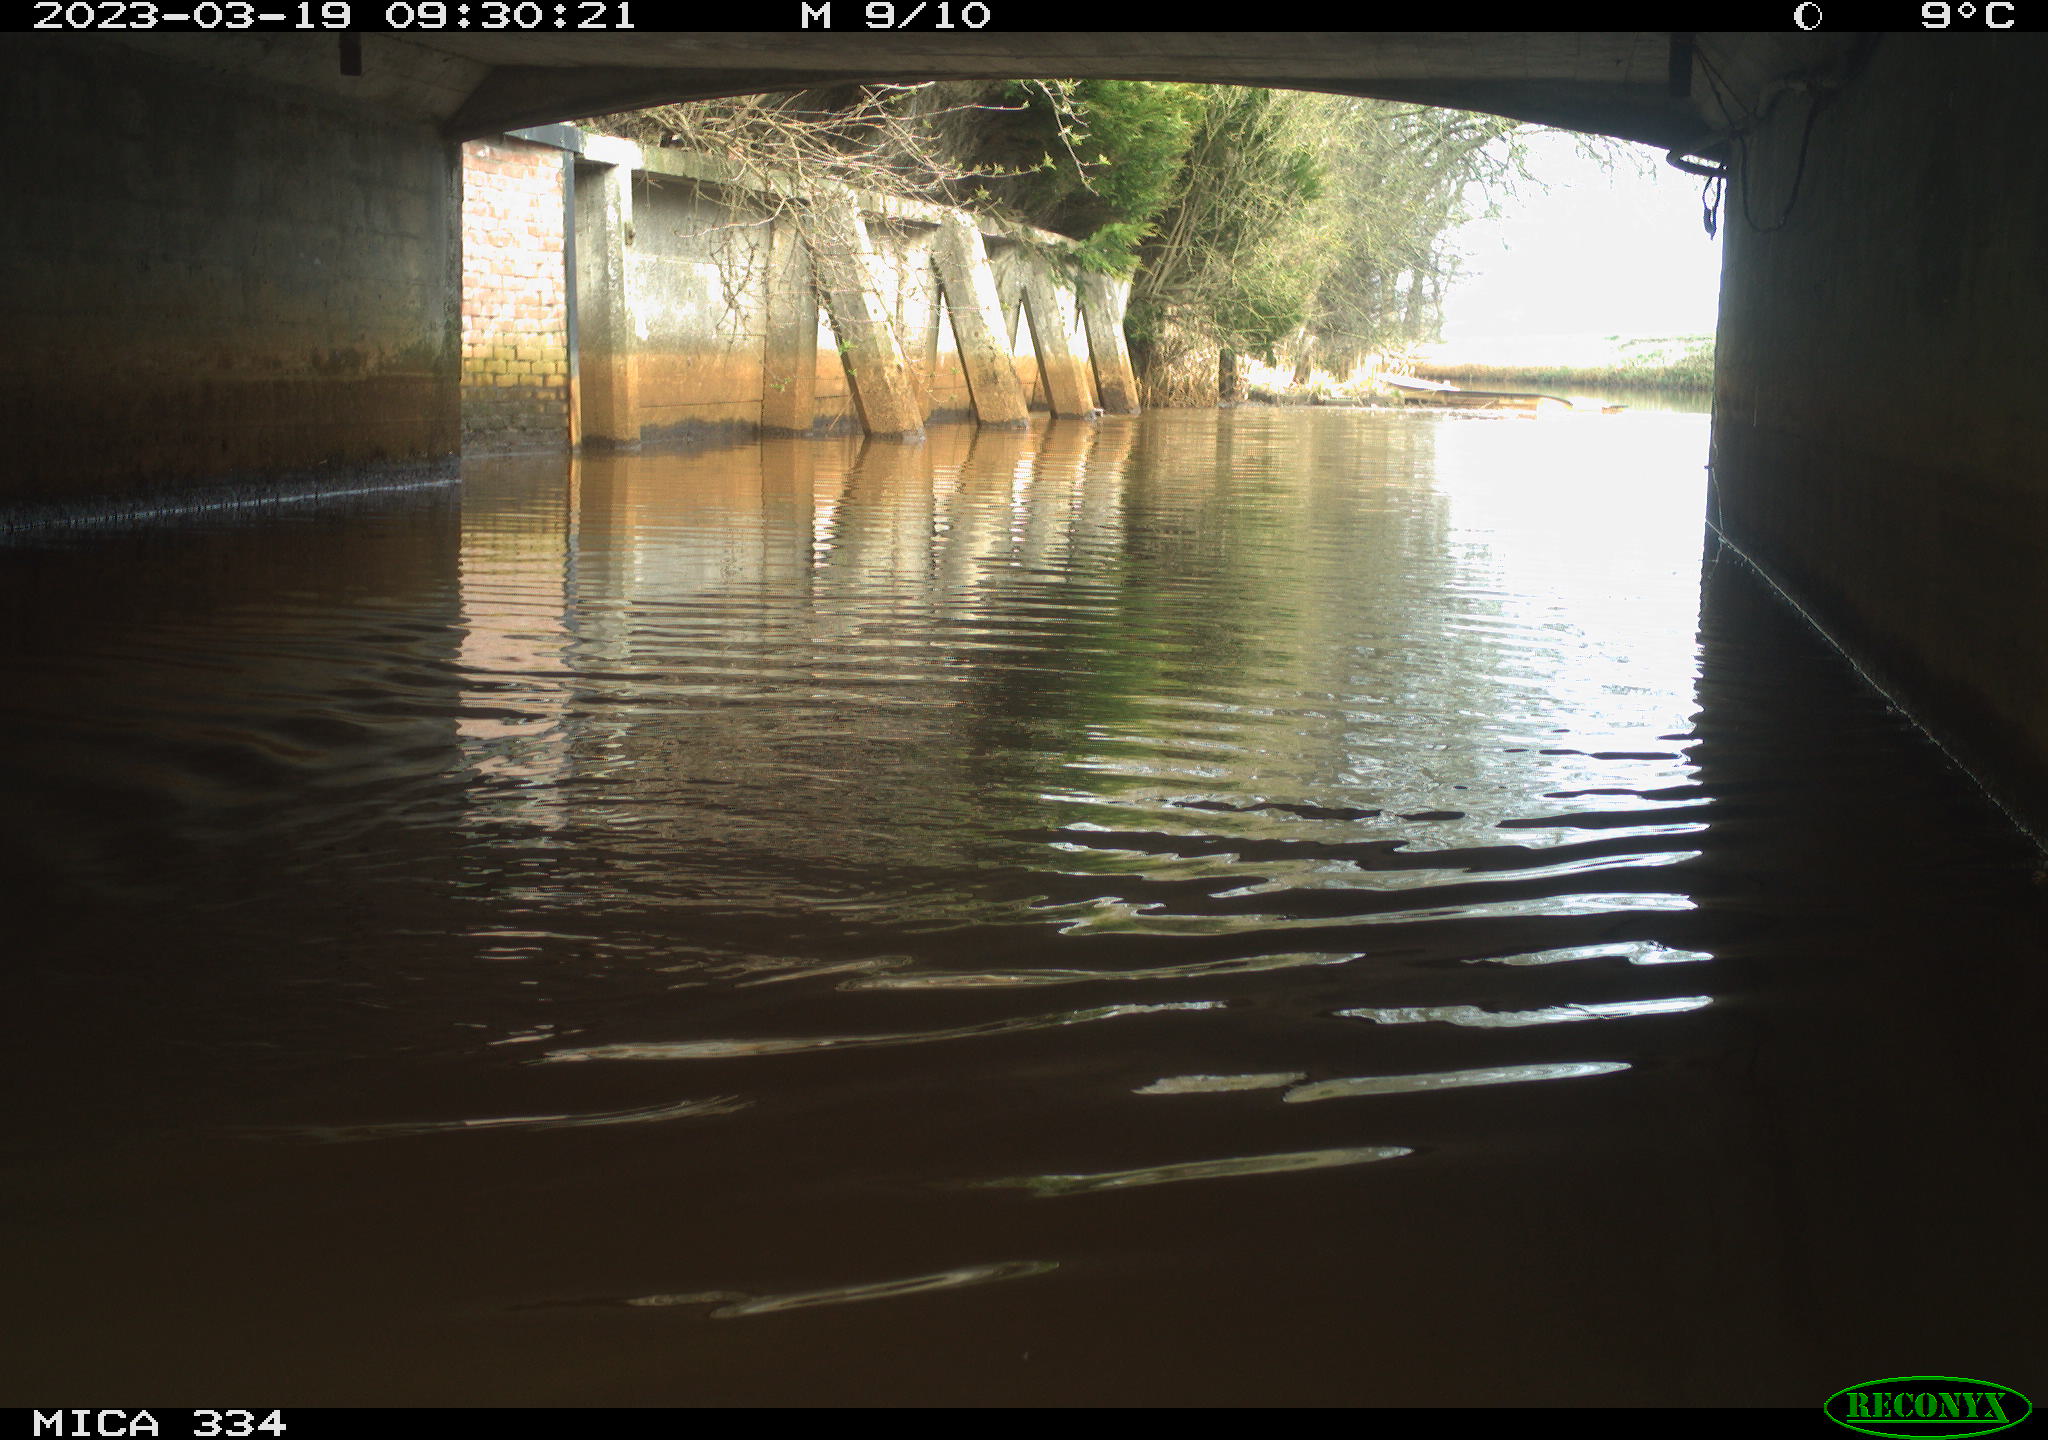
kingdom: Animalia
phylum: Chordata
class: Aves
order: Anseriformes
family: Anatidae
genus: Anas
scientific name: Anas
